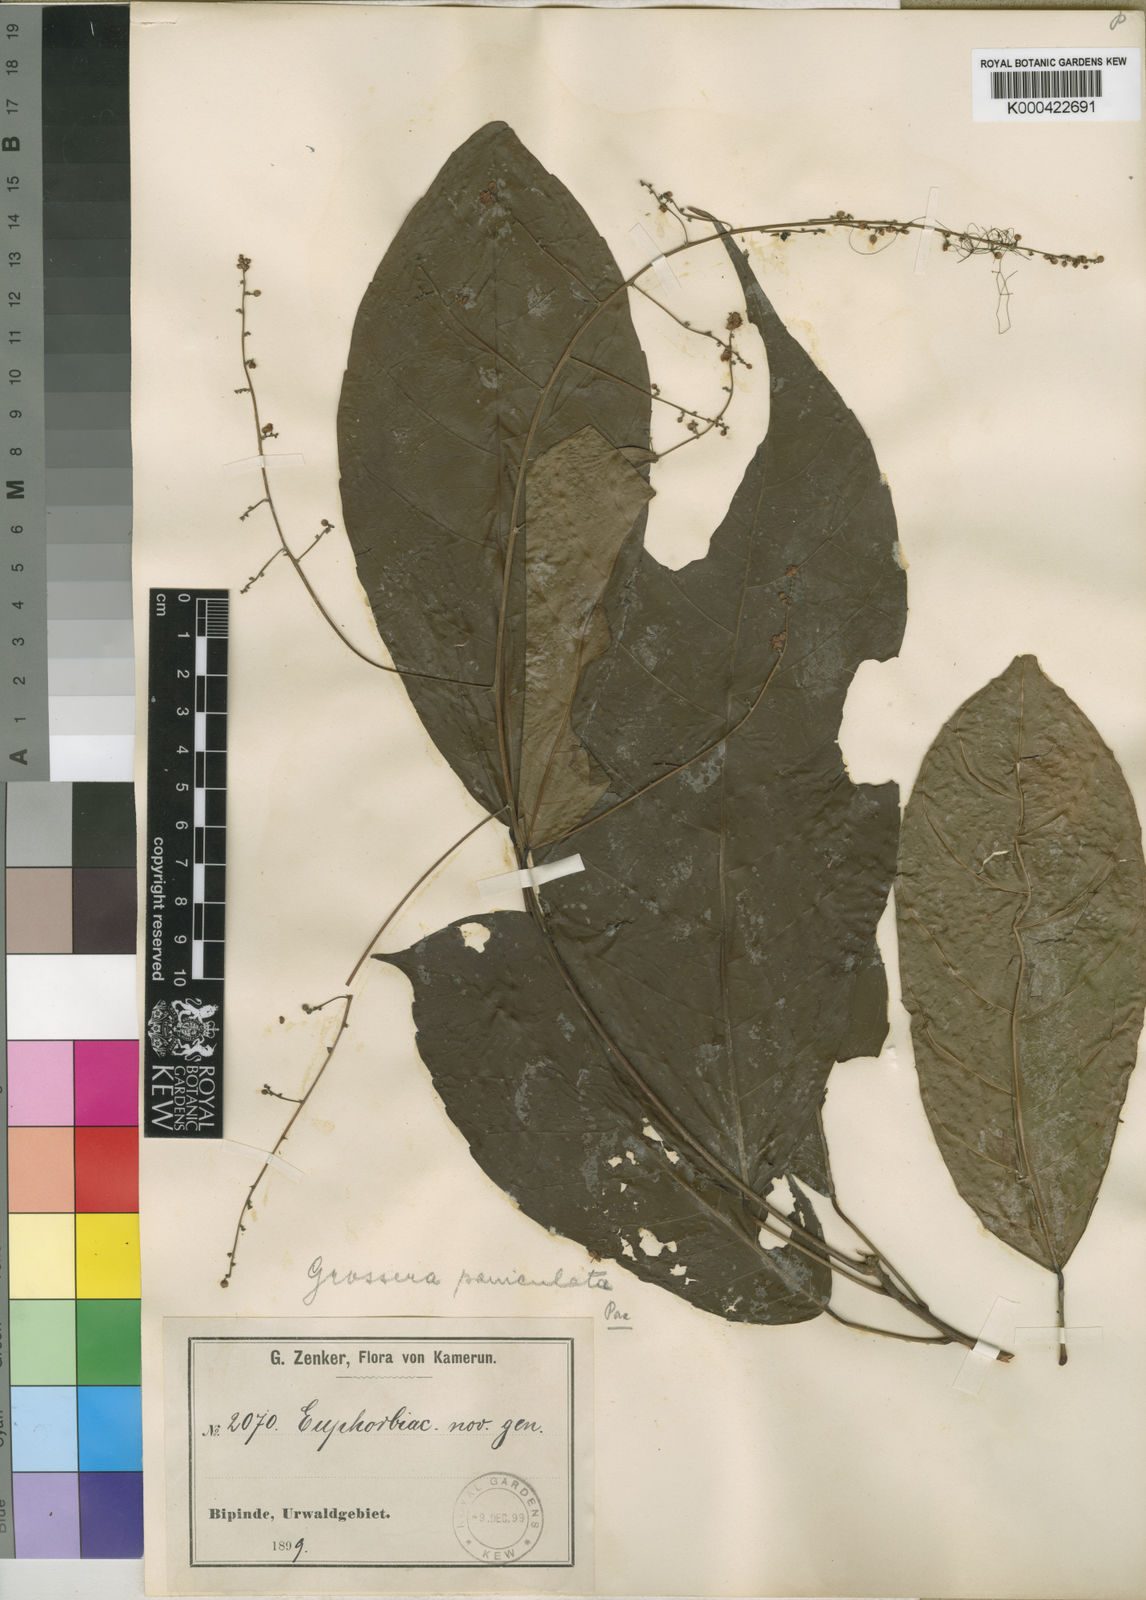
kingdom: Plantae
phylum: Tracheophyta
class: Magnoliopsida
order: Malpighiales
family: Euphorbiaceae
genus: Grossera
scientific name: Grossera paniculata
